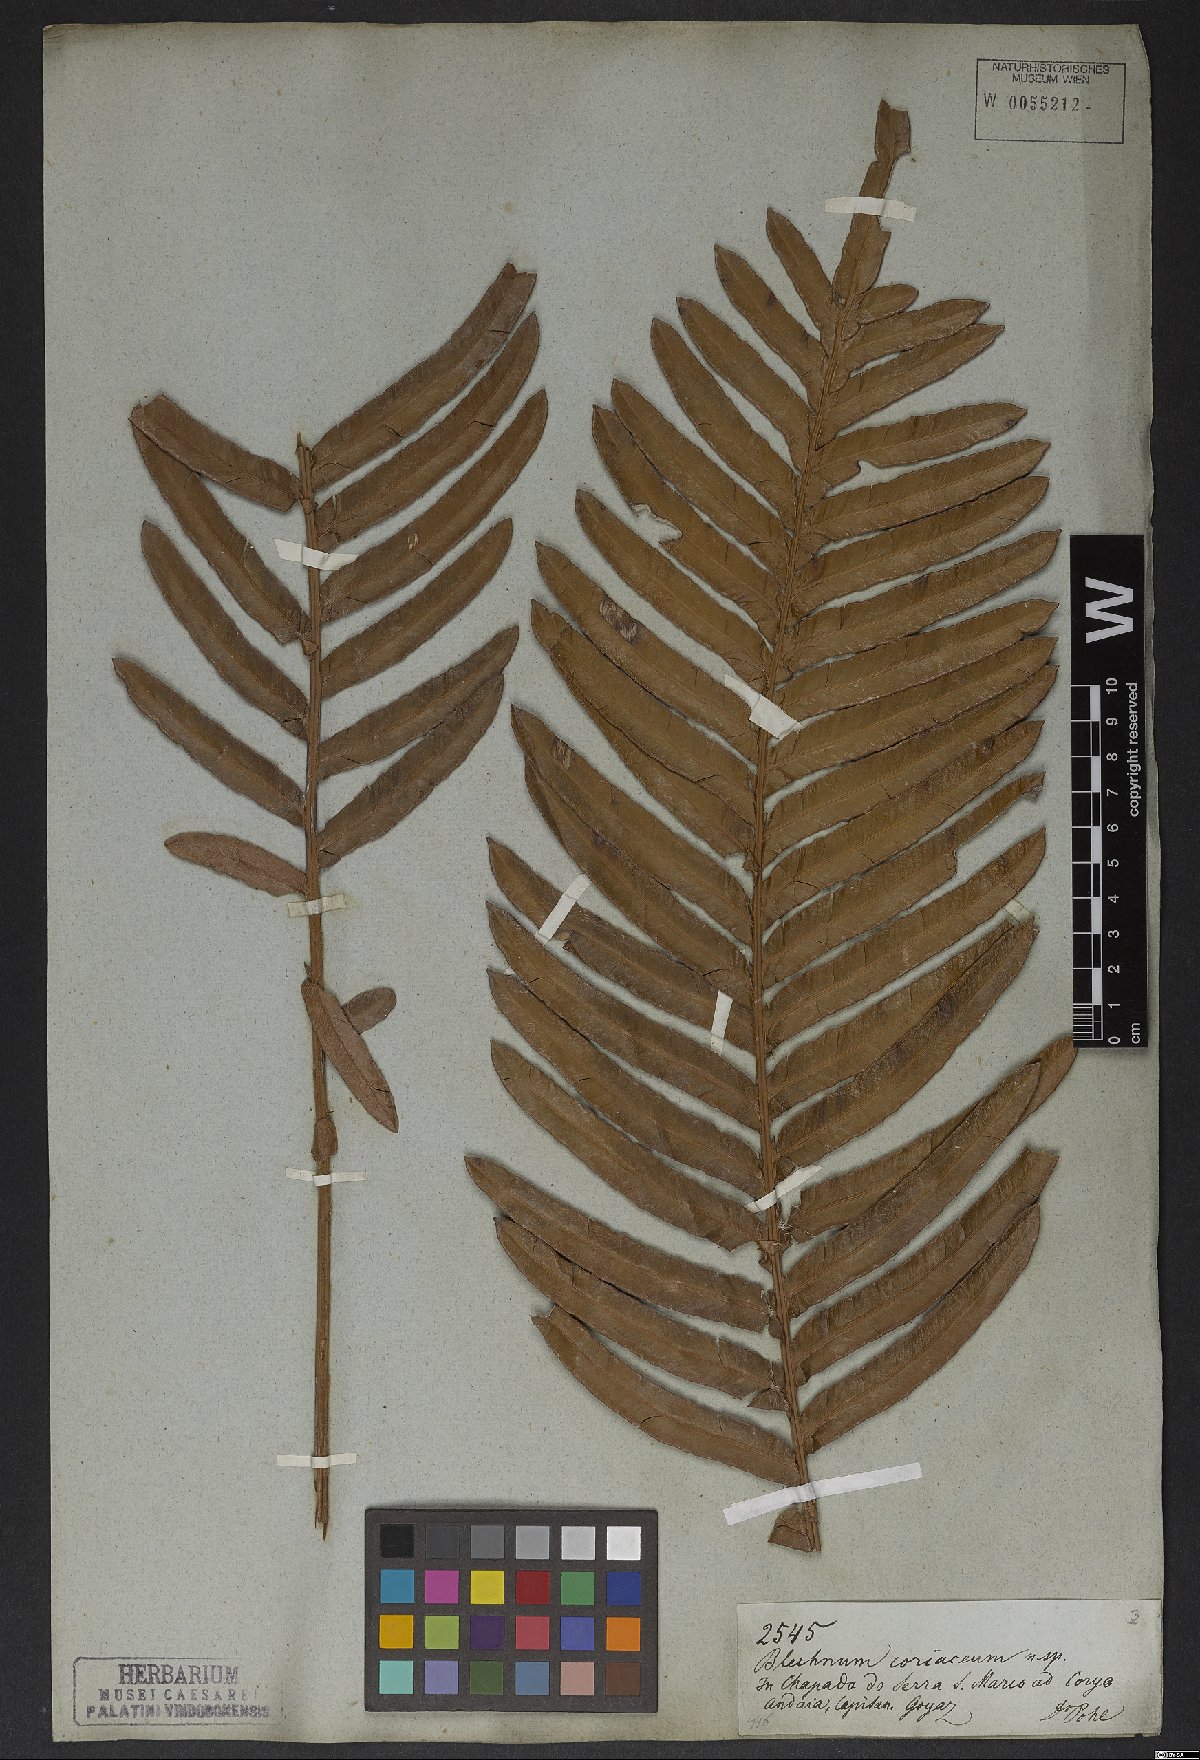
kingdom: Plantae
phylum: Tracheophyta
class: Polypodiopsida
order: Polypodiales
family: Blechnaceae
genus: Lomariocycas
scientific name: Lomariocycas schomburgkii
